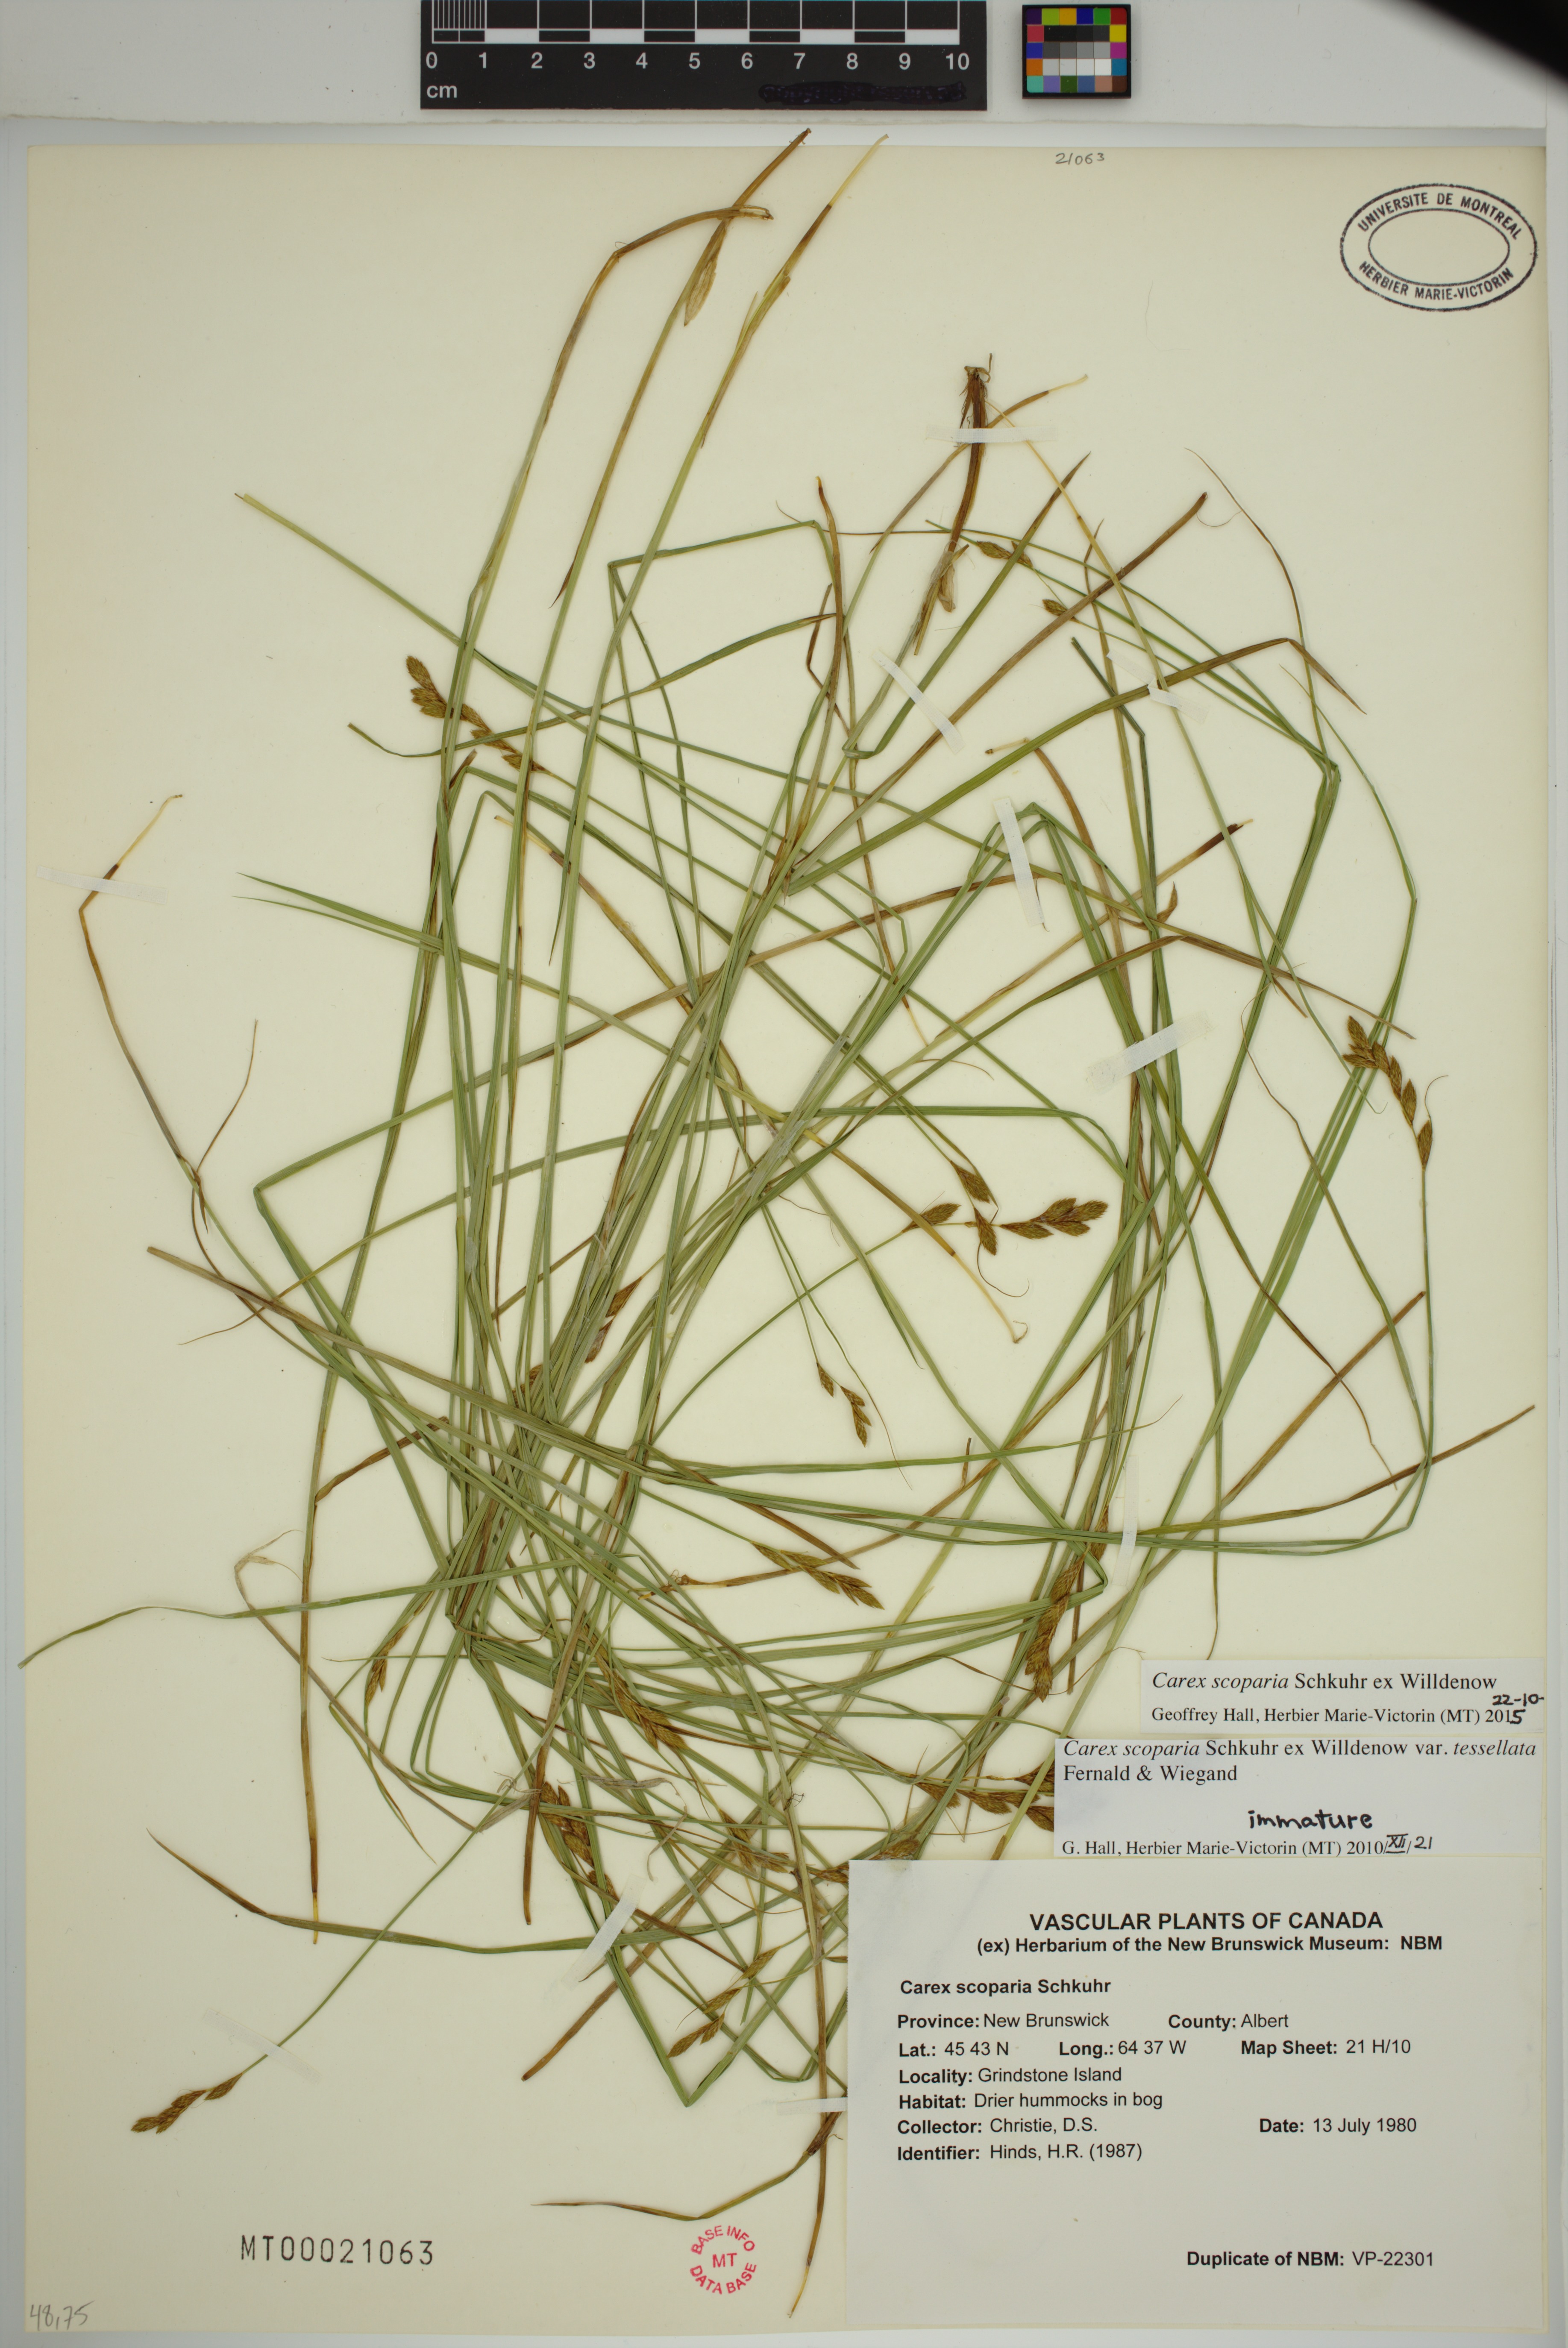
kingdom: Plantae
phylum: Tracheophyta
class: Liliopsida
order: Poales
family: Cyperaceae
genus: Carex
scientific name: Carex scoparia
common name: Broom sedge
